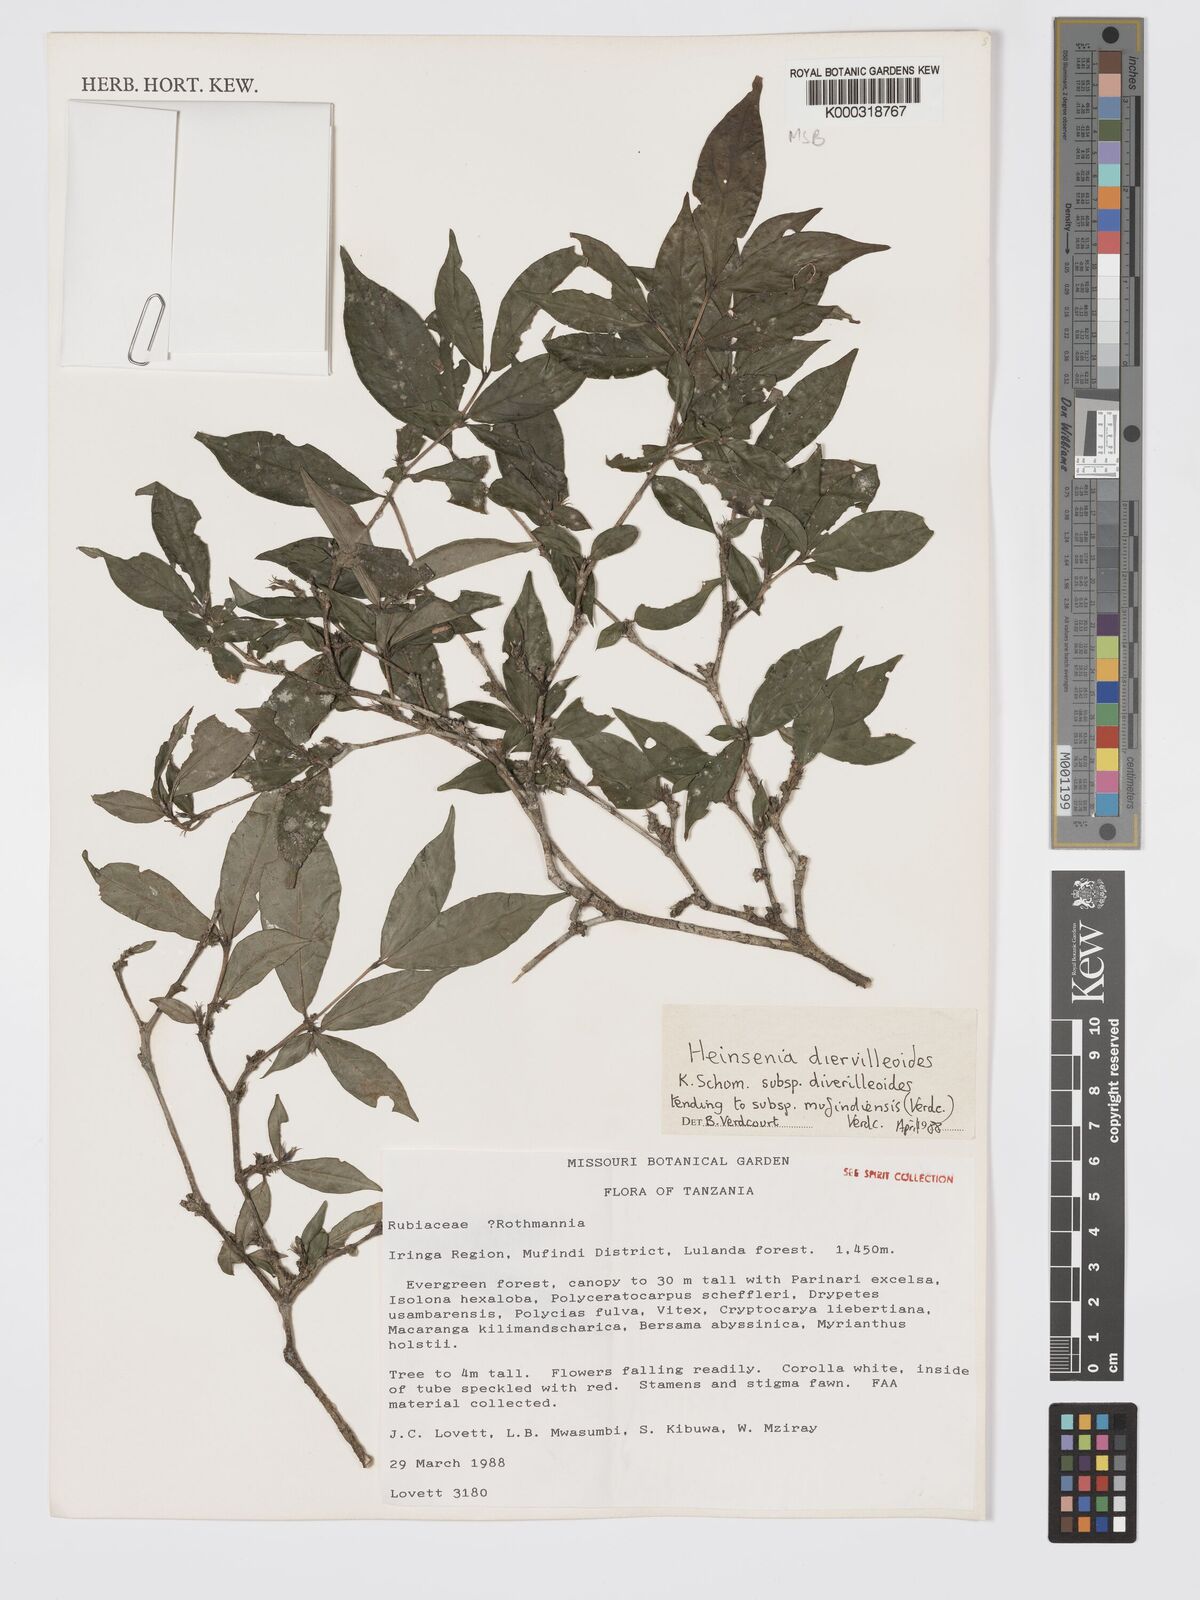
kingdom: Plantae
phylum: Tracheophyta
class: Magnoliopsida
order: Gentianales
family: Rubiaceae
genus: Heinsenia
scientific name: Heinsenia diervilleoides
